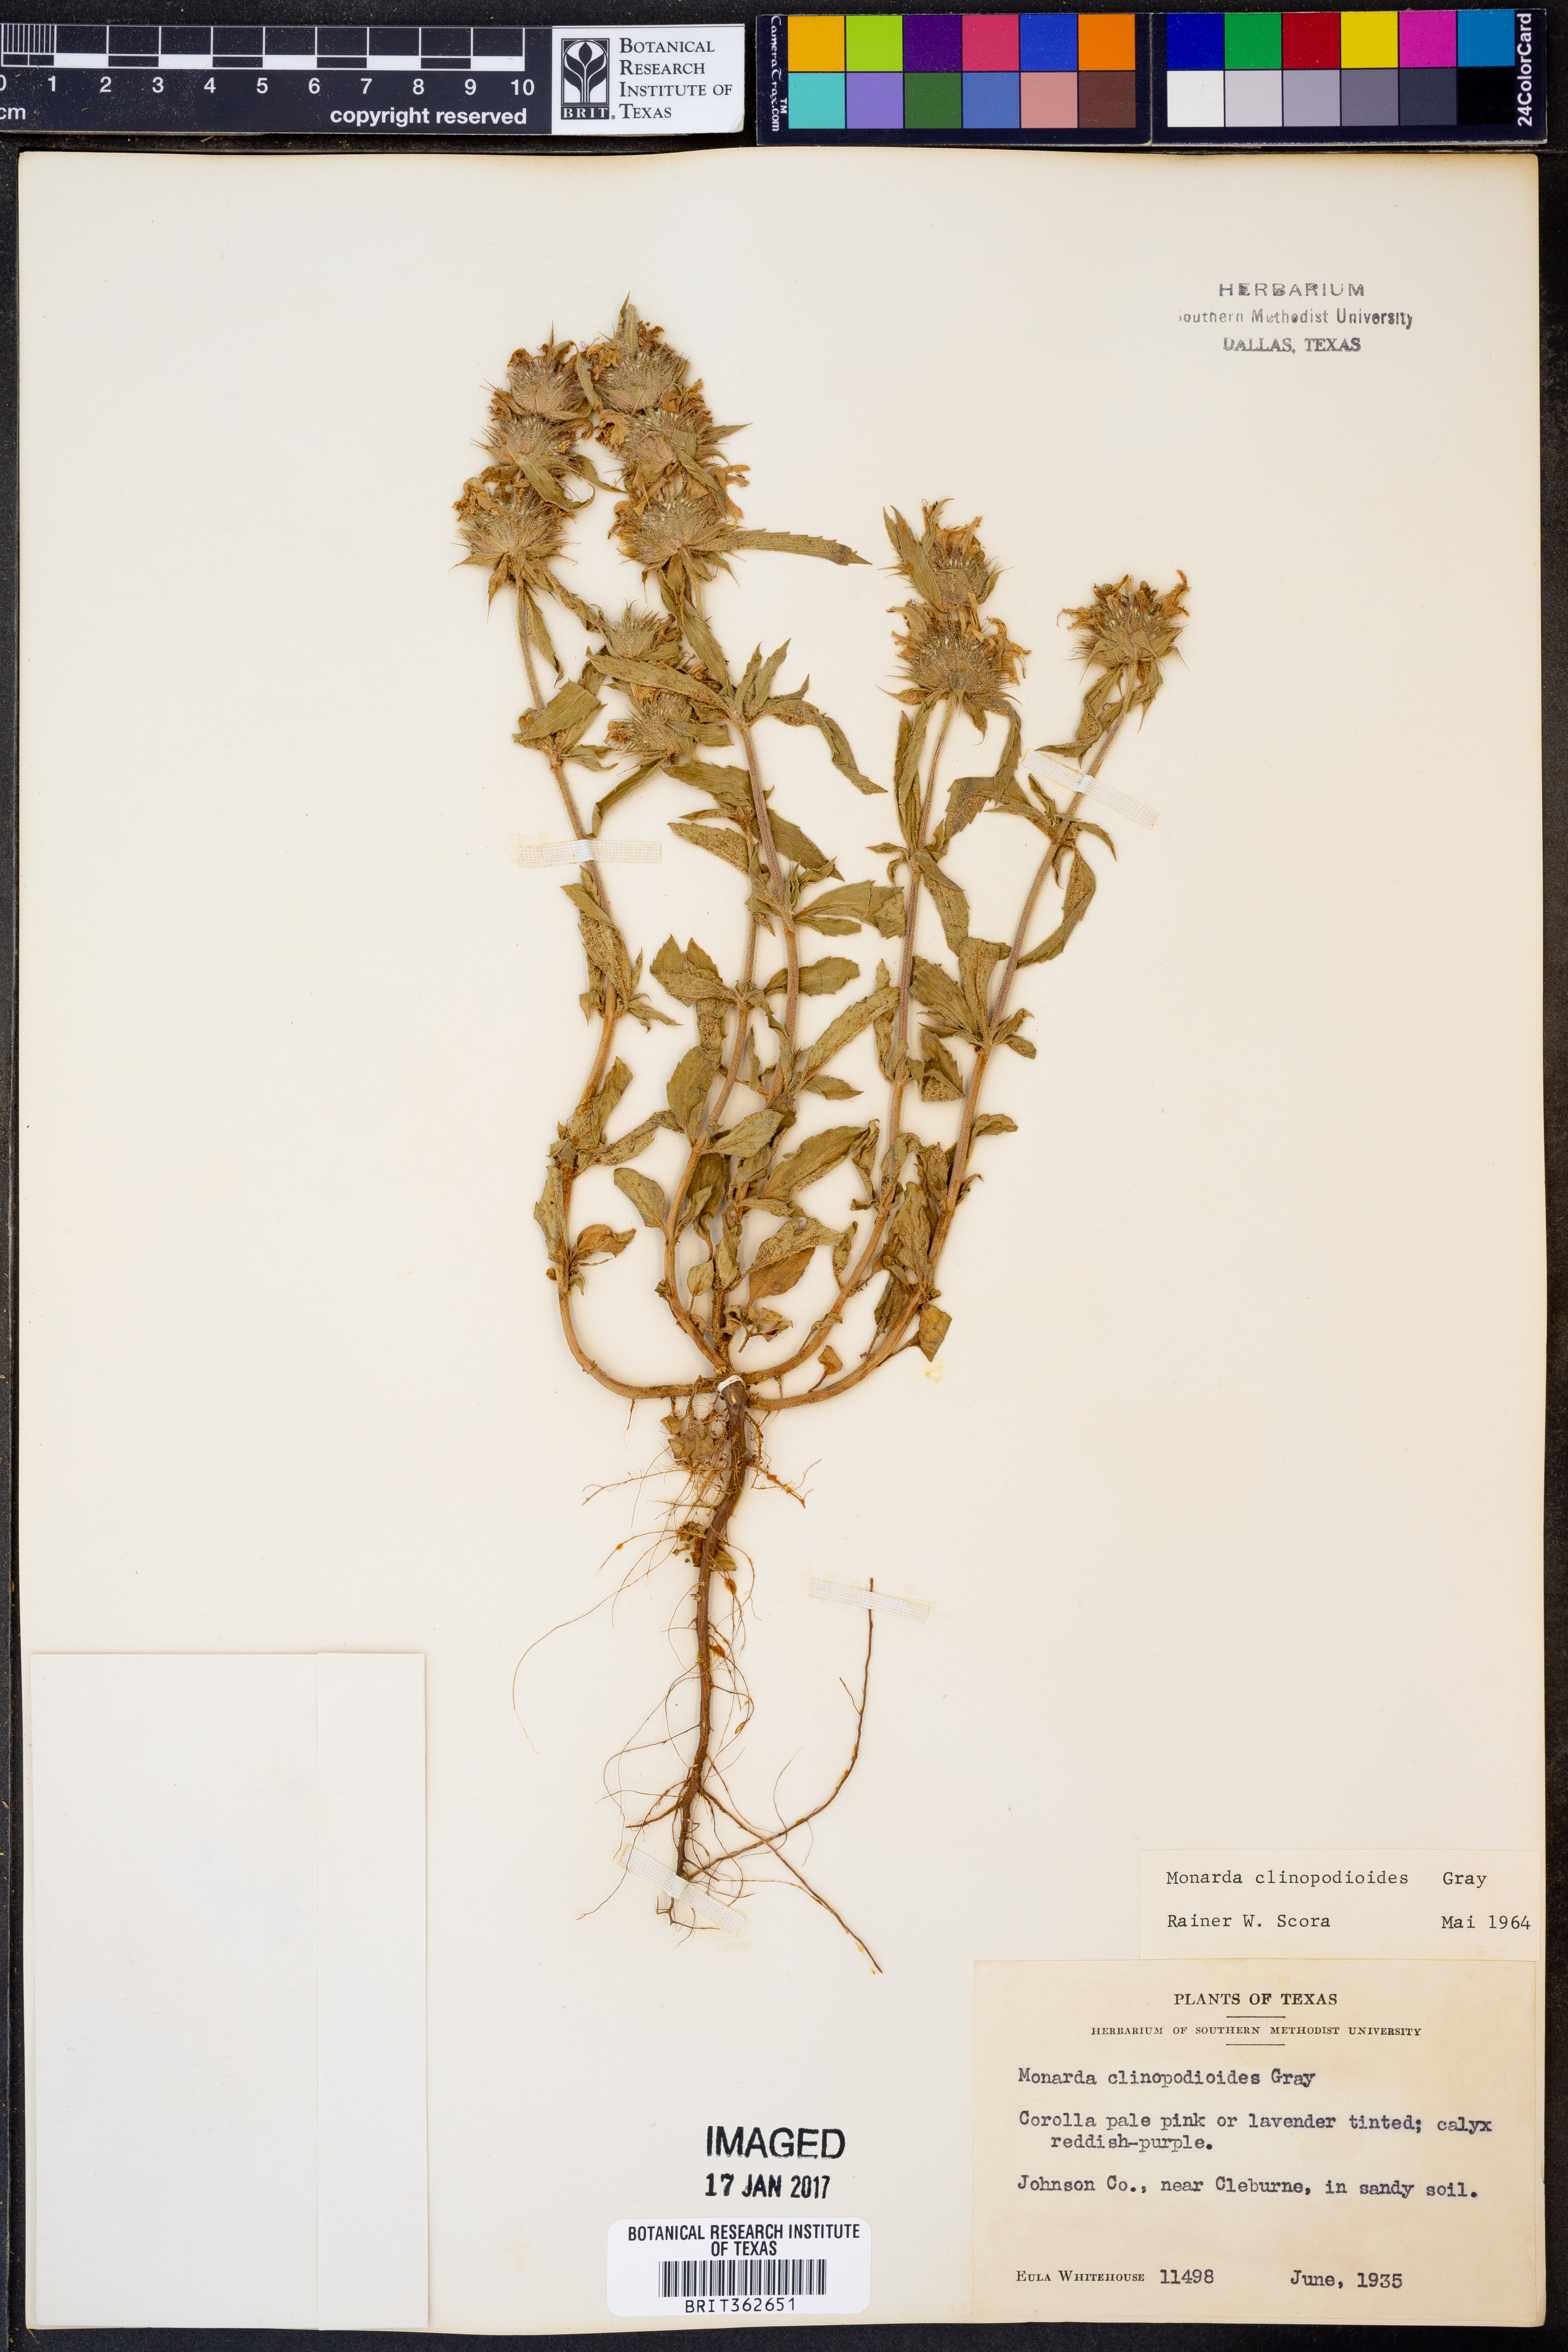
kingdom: Plantae
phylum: Tracheophyta
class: Magnoliopsida
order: Lamiales
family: Lamiaceae
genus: Monarda
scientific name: Monarda clinopodioides
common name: Basil beebalm
